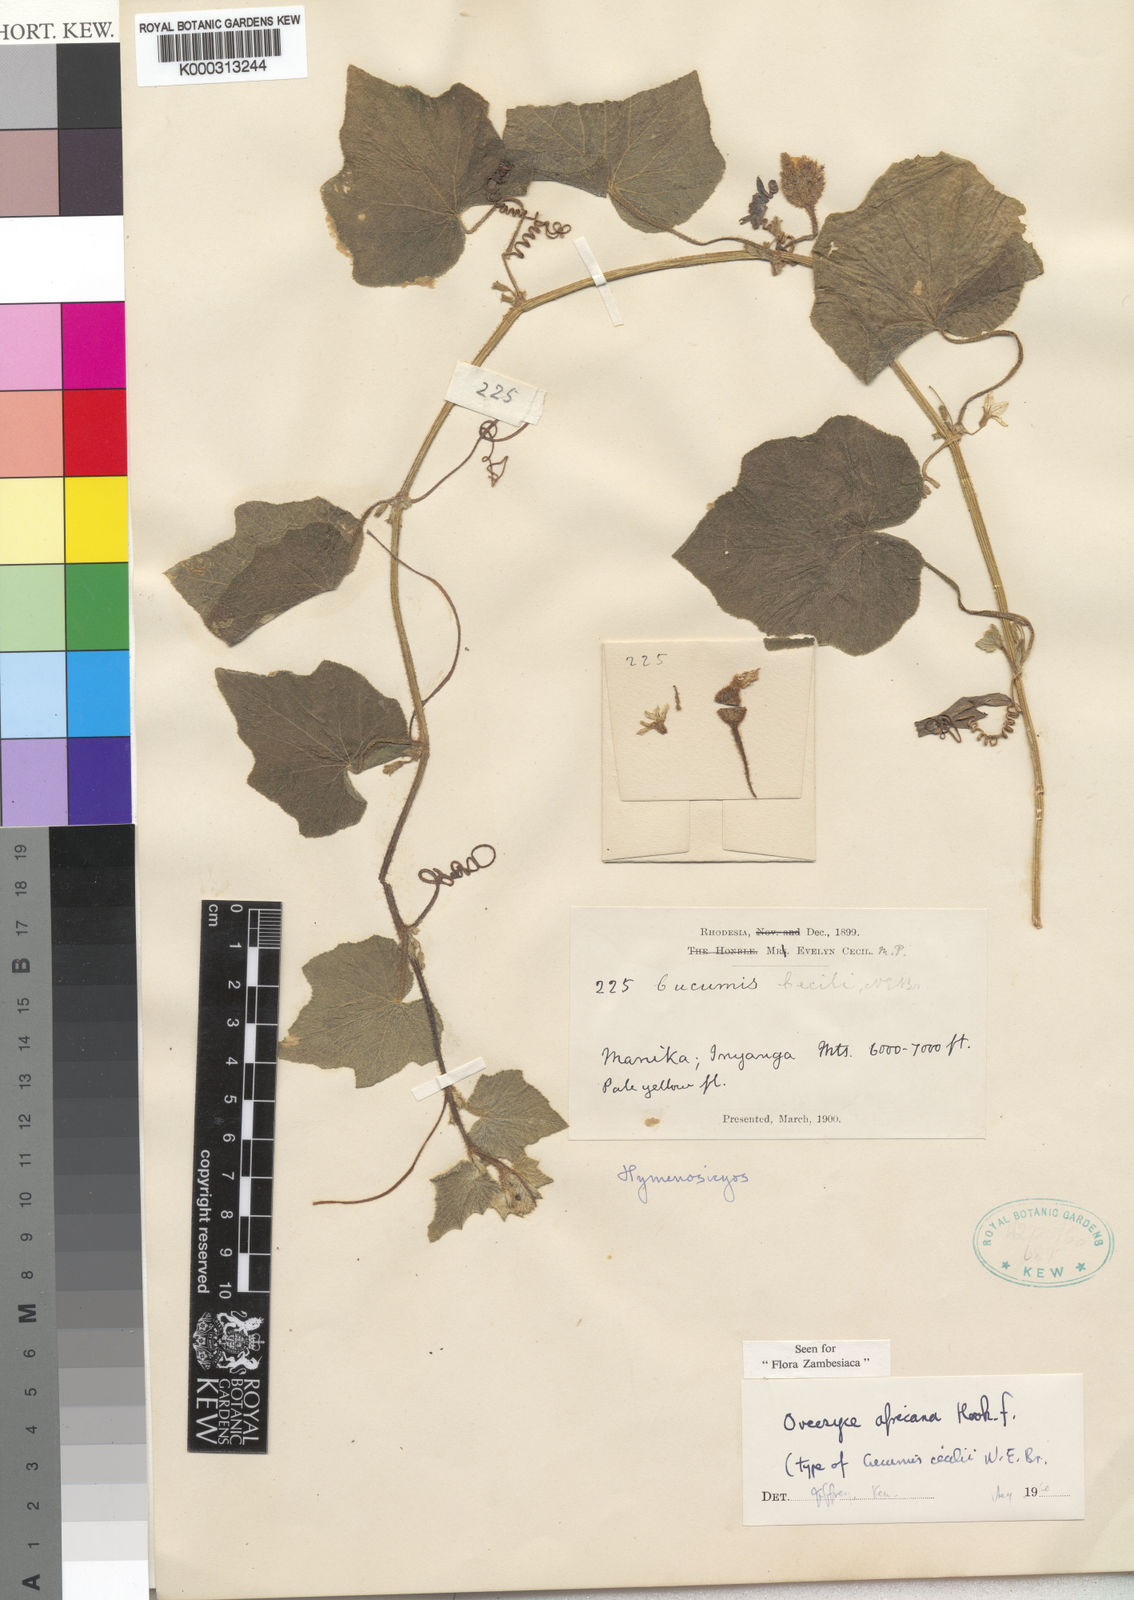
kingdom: Plantae
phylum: Tracheophyta
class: Magnoliopsida
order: Cucurbitales
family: Cucurbitaceae
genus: Cucumis
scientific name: Cucumis oreosyce
